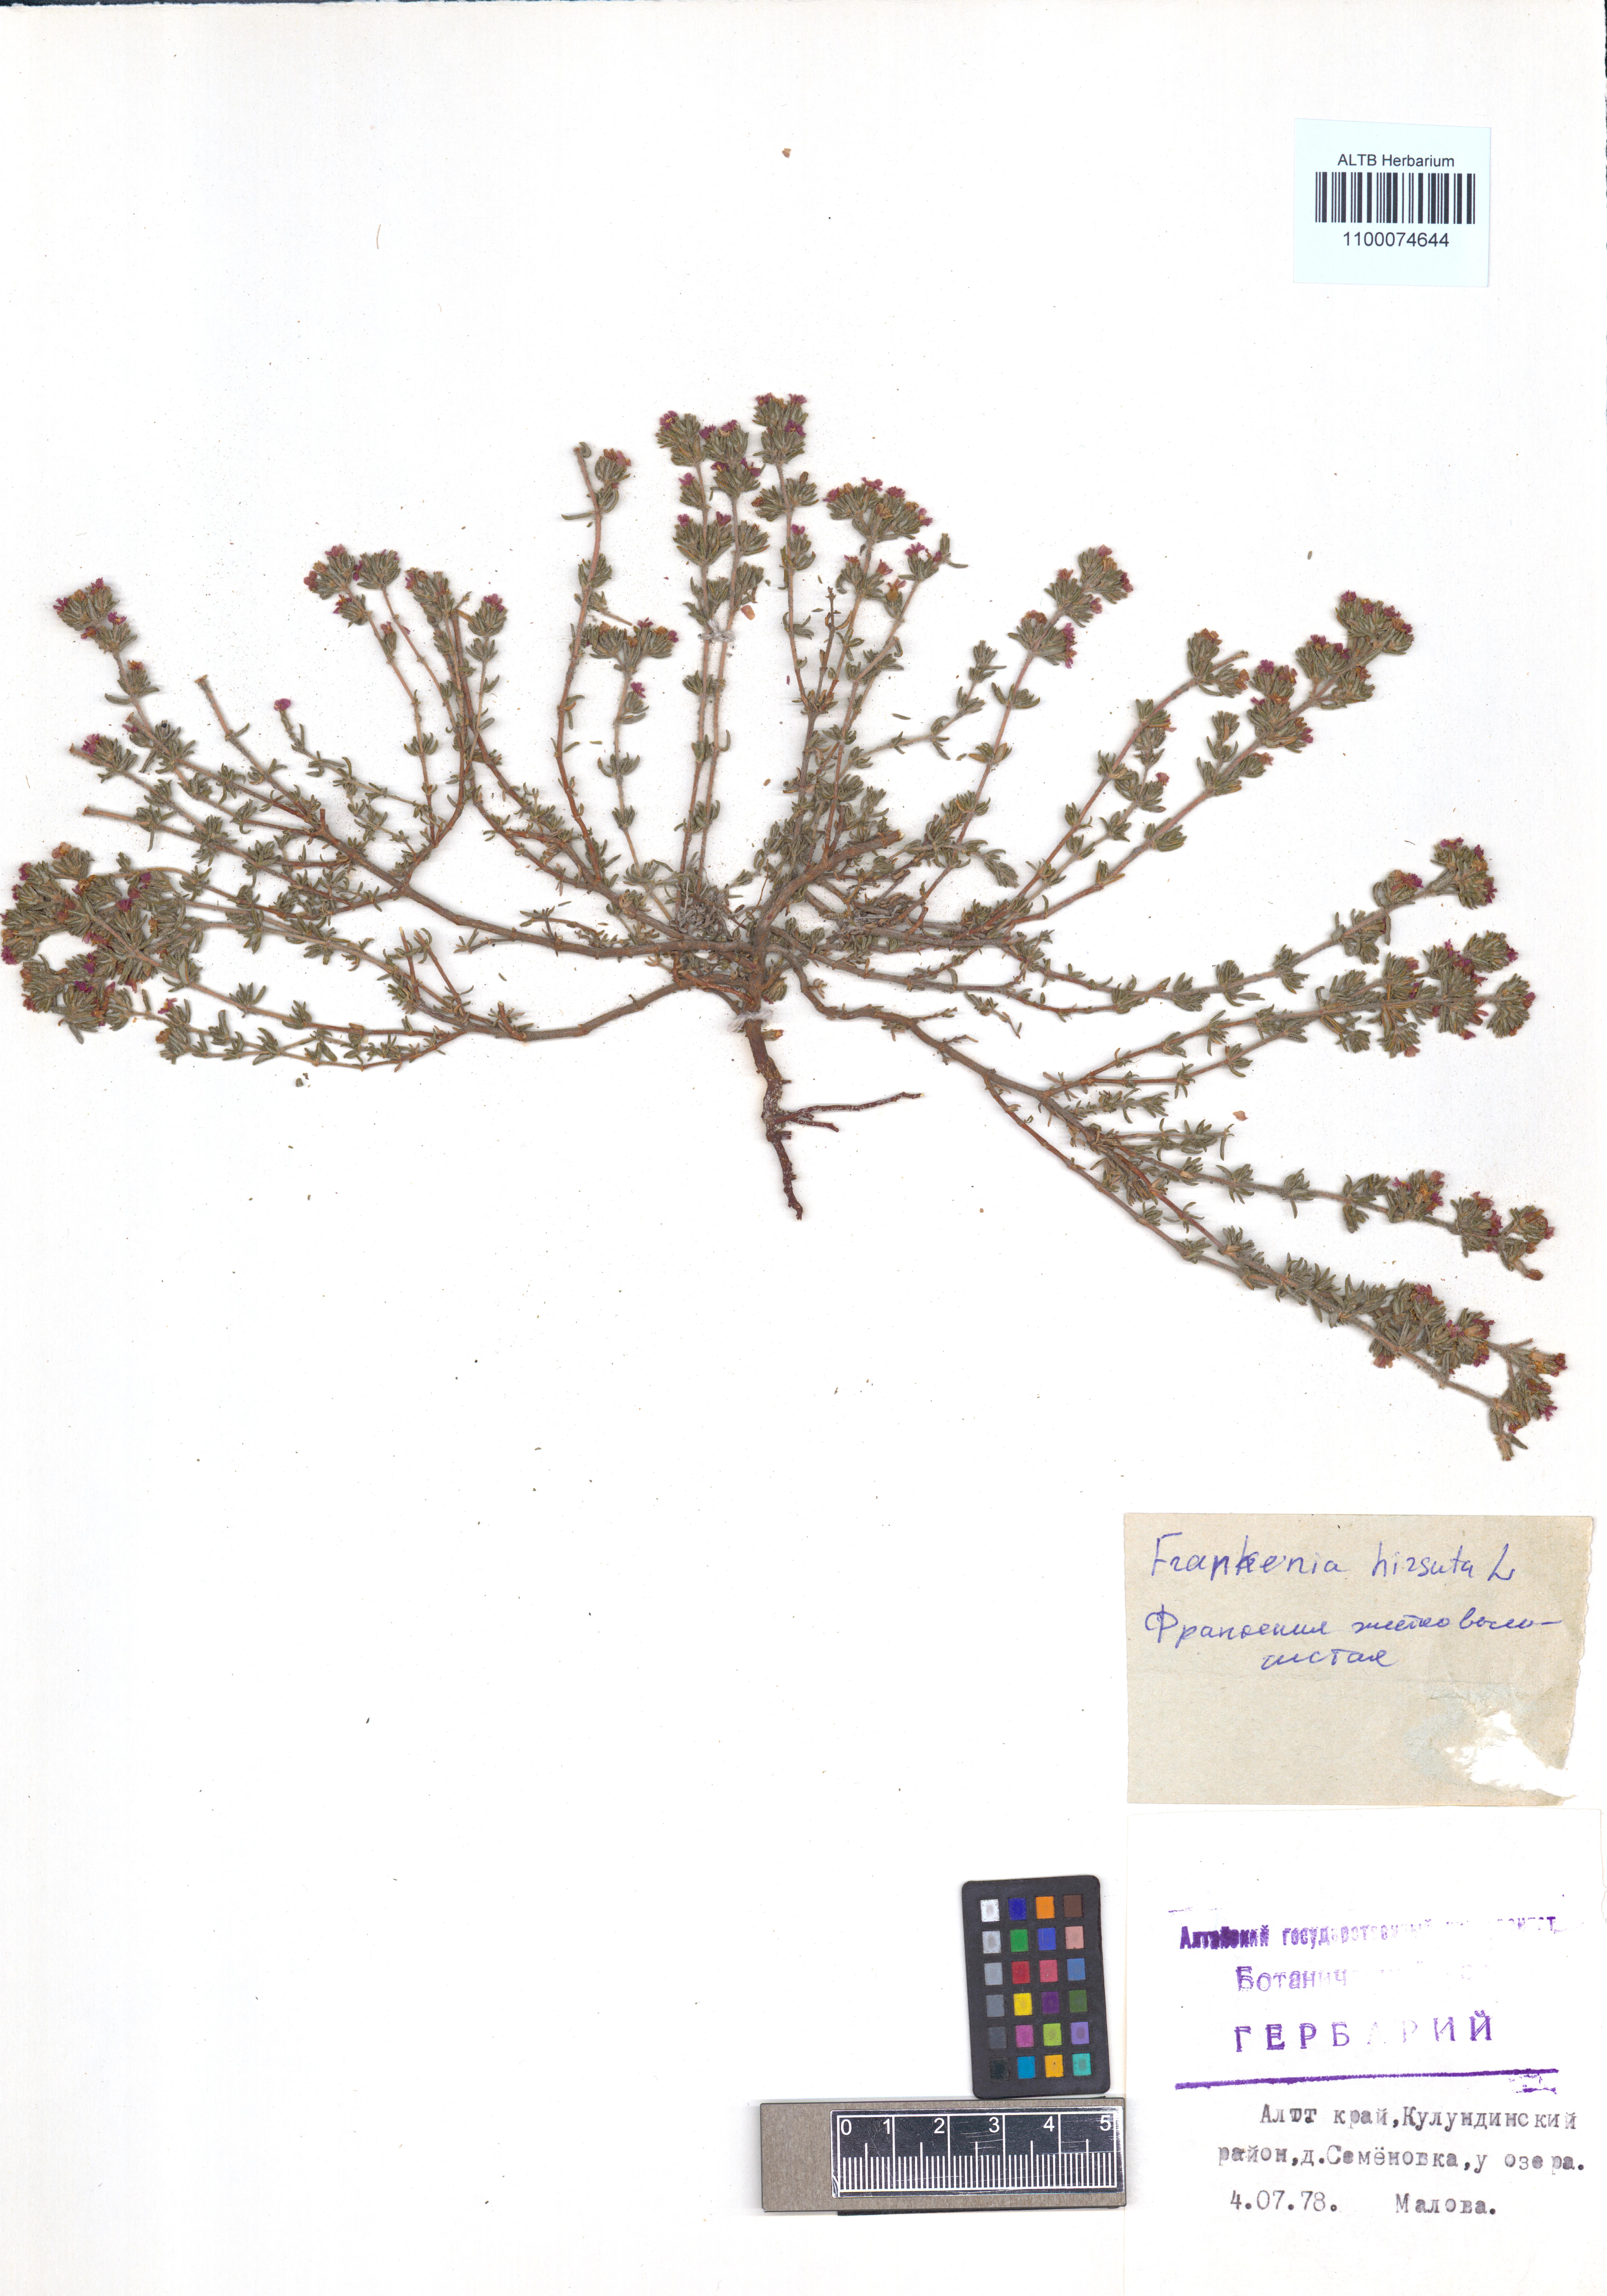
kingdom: Plantae
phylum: Tracheophyta
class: Magnoliopsida
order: Caryophyllales
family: Frankeniaceae
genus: Frankenia
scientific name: Frankenia hirsuta
